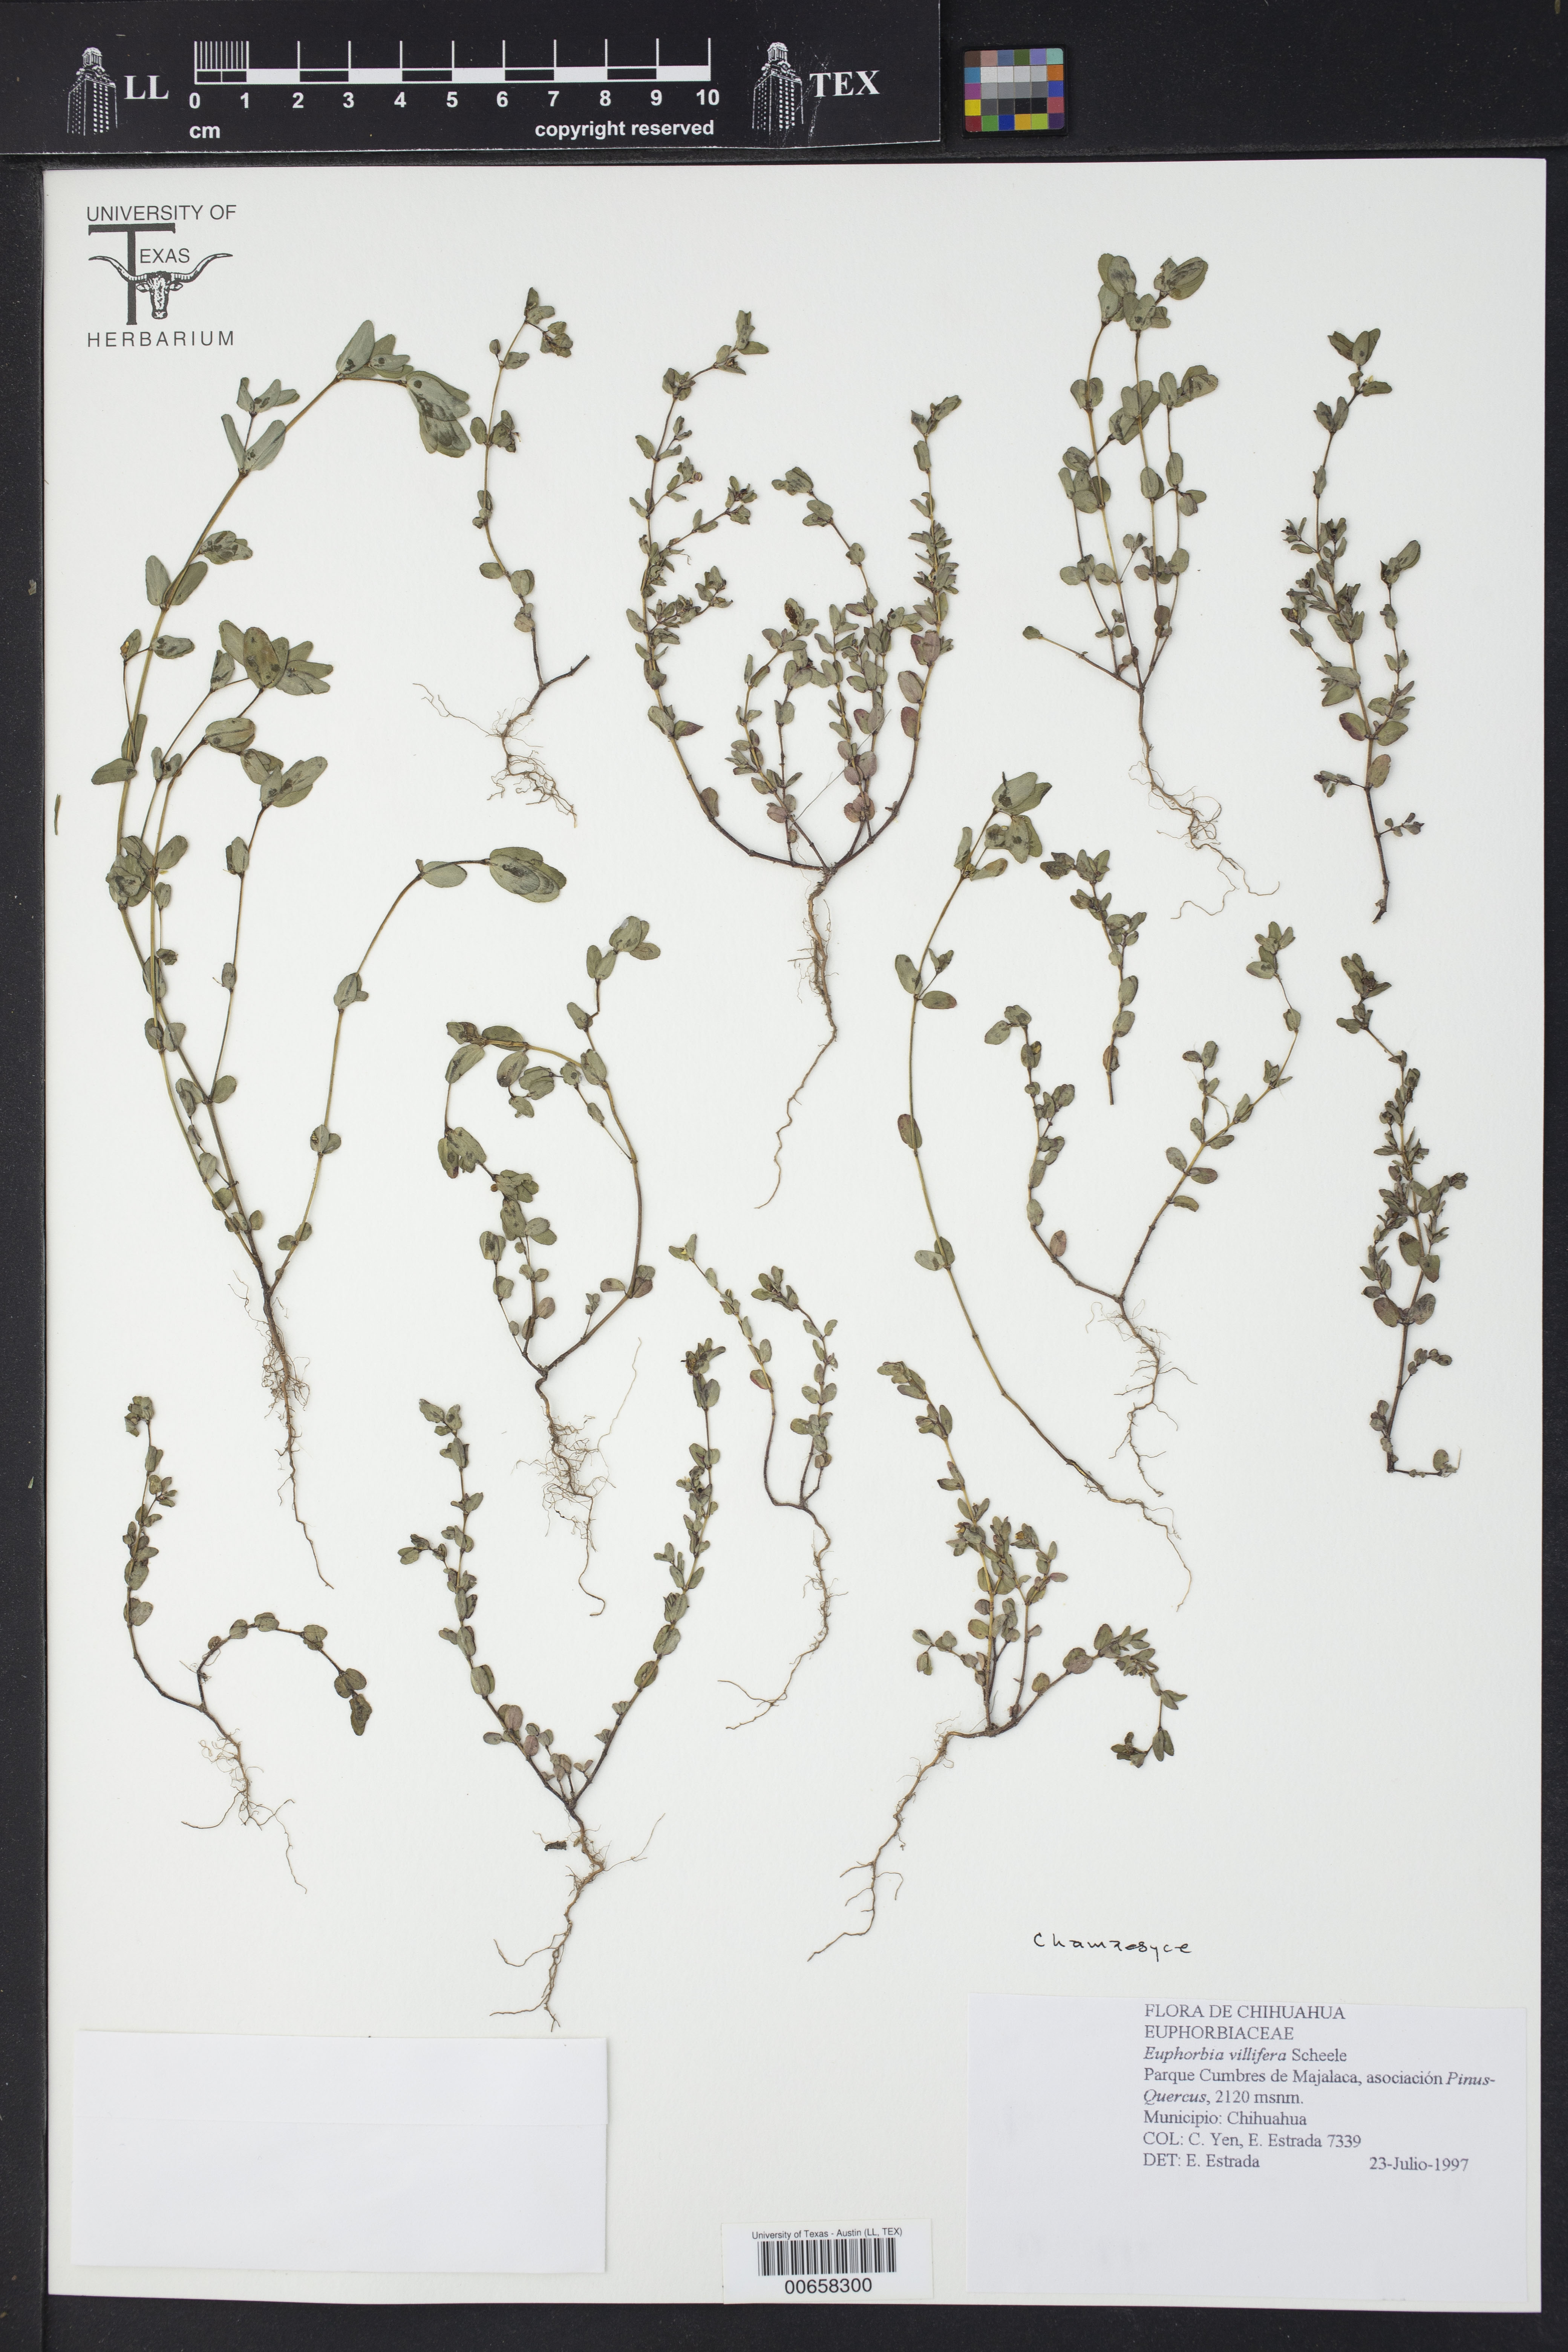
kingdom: Plantae
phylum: Tracheophyta
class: Magnoliopsida
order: Malpighiales
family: Euphorbiaceae
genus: Chamaesyce
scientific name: Chamaesyce
